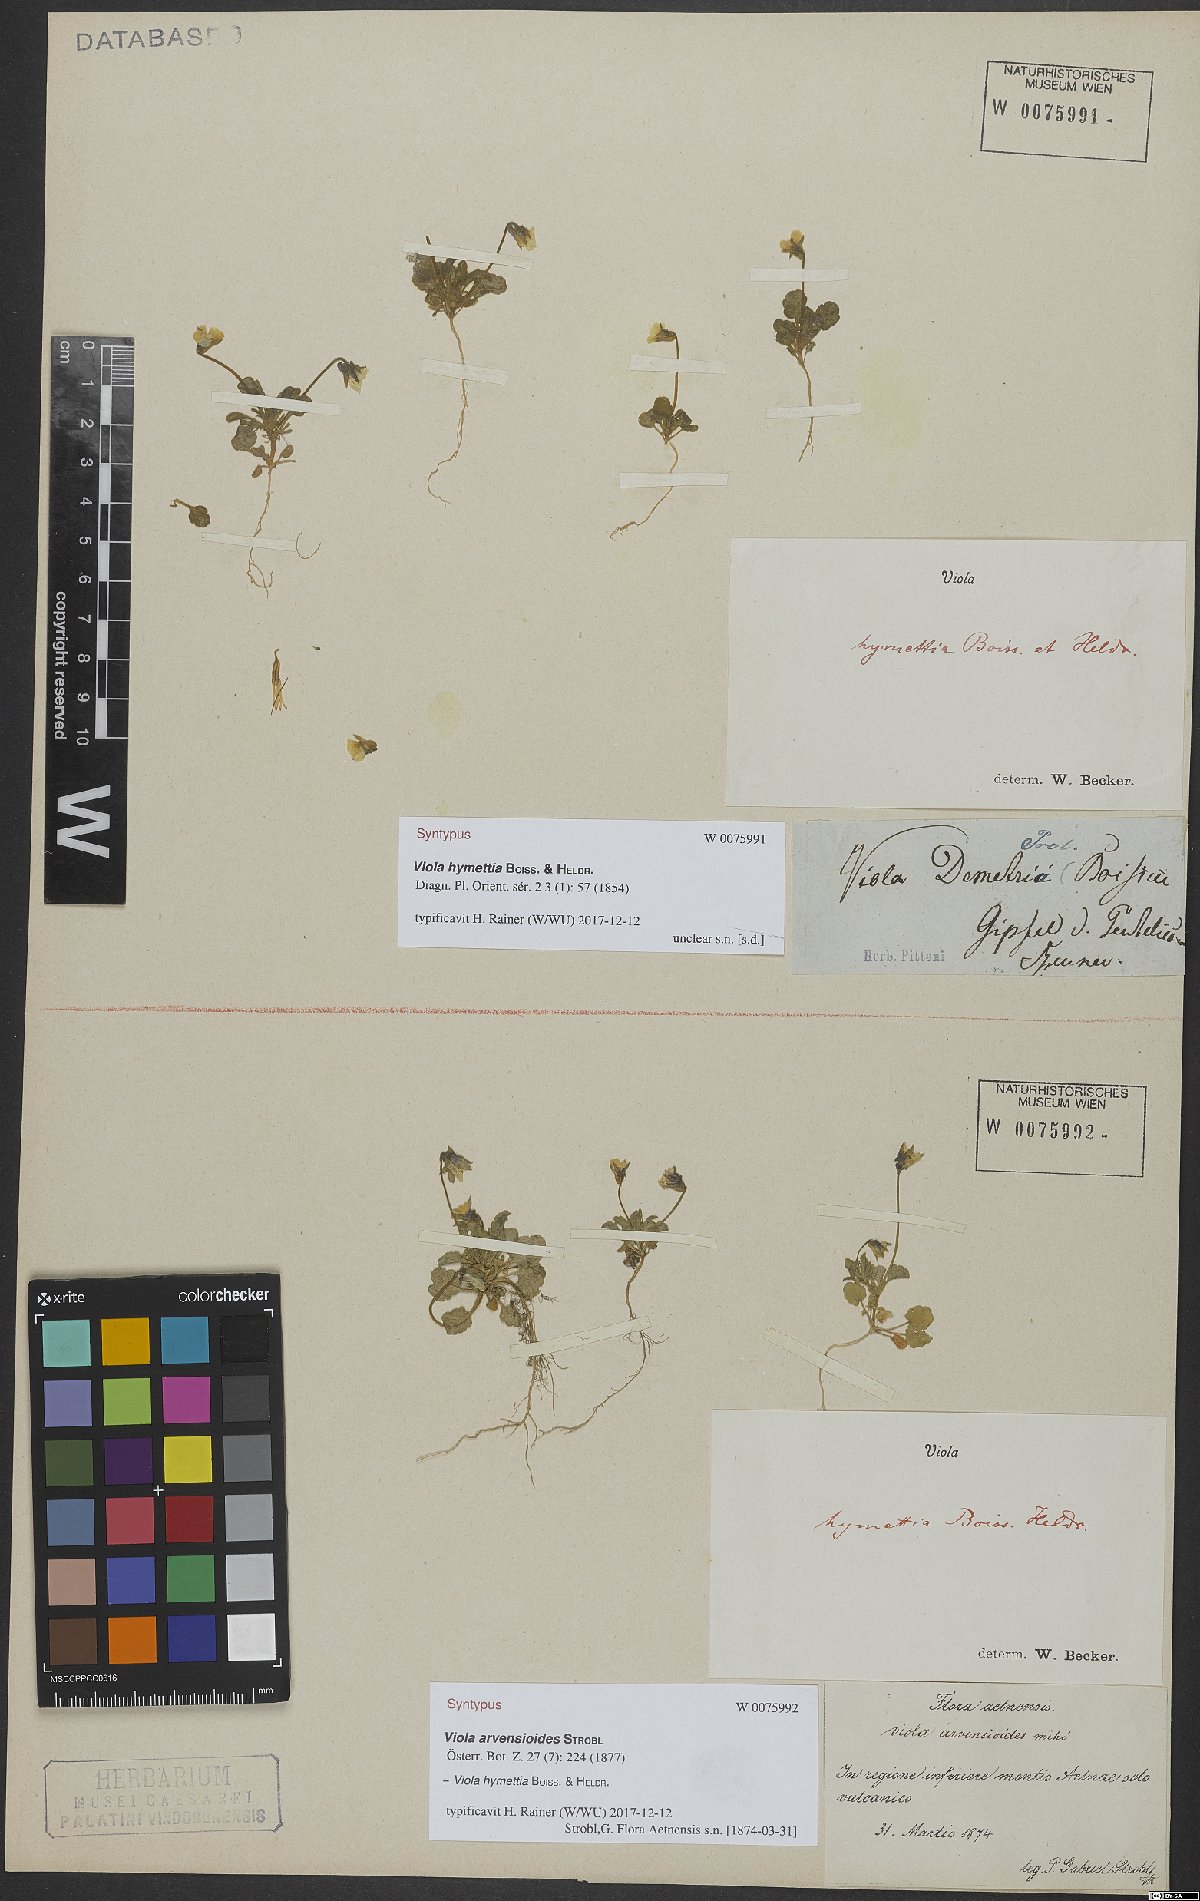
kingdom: Plantae
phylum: Tracheophyta
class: Magnoliopsida
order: Malpighiales
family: Violaceae
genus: Viola
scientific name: Viola hymettia
